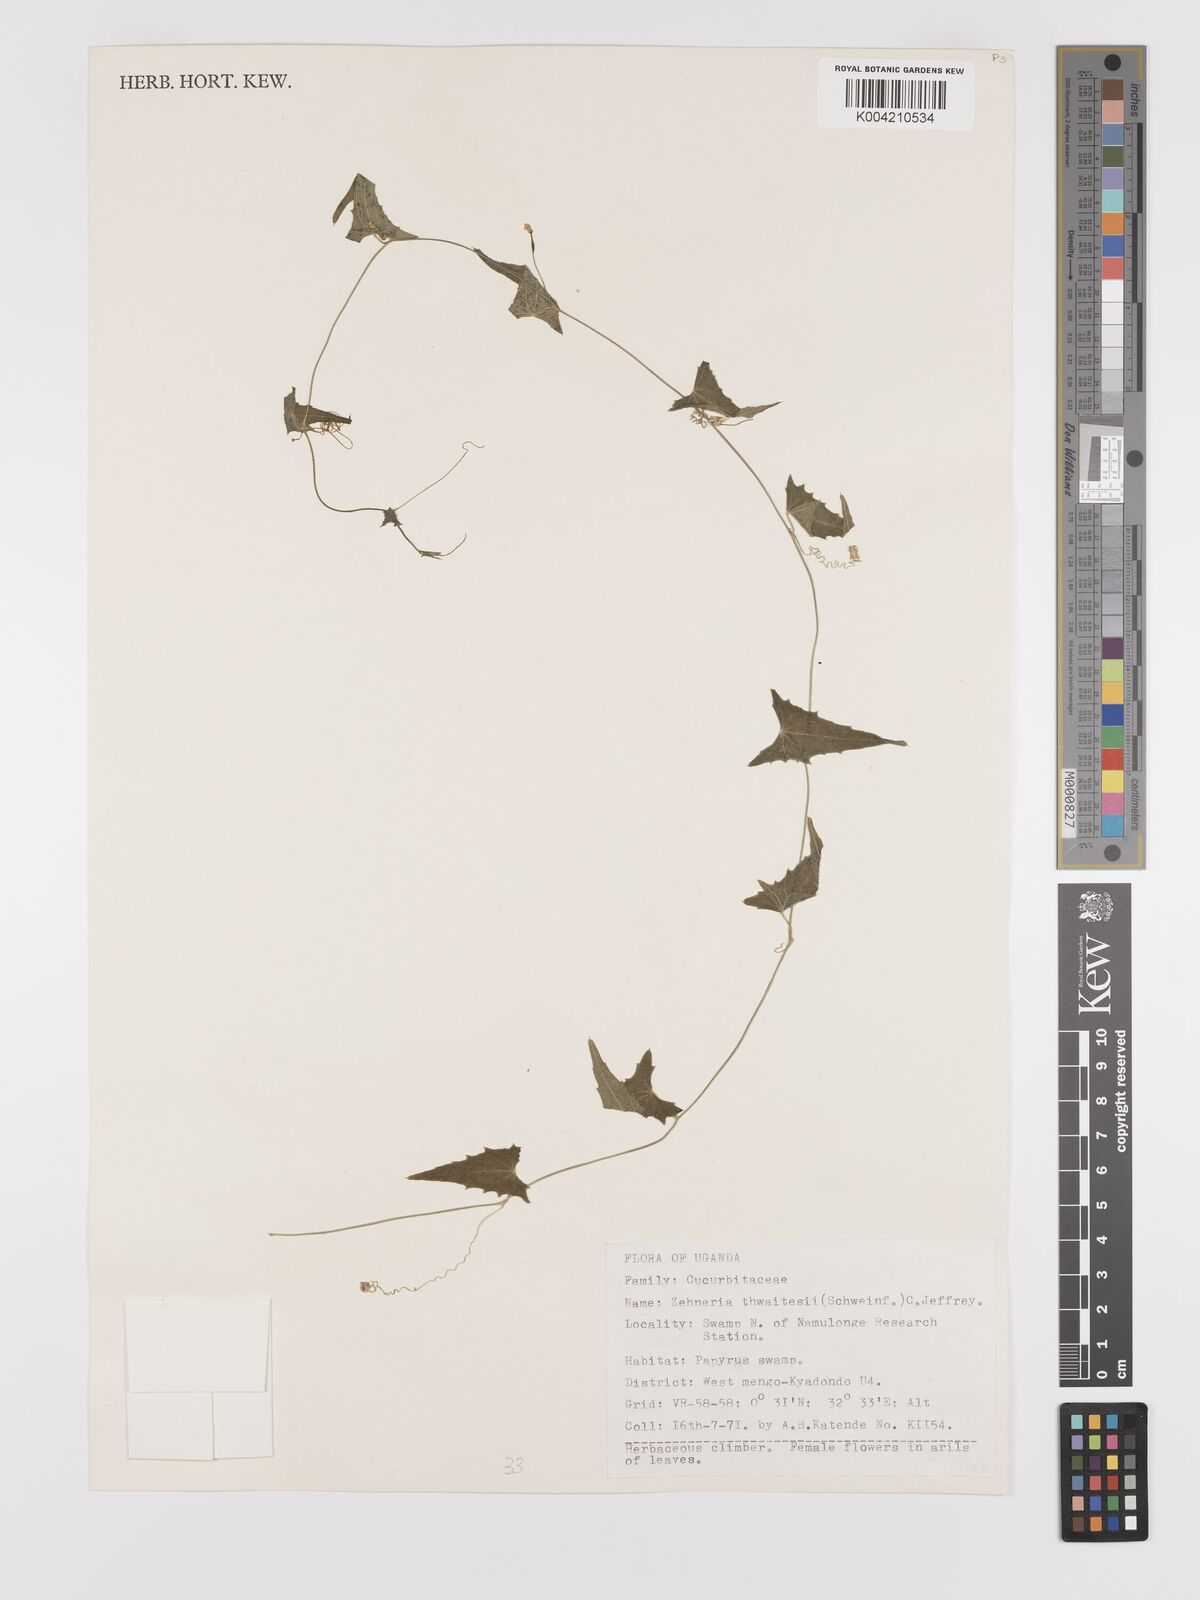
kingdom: Plantae
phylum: Tracheophyta
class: Magnoliopsida
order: Cucurbitales
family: Cucurbitaceae
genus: Zehneria
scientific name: Zehneria thwaitesii
